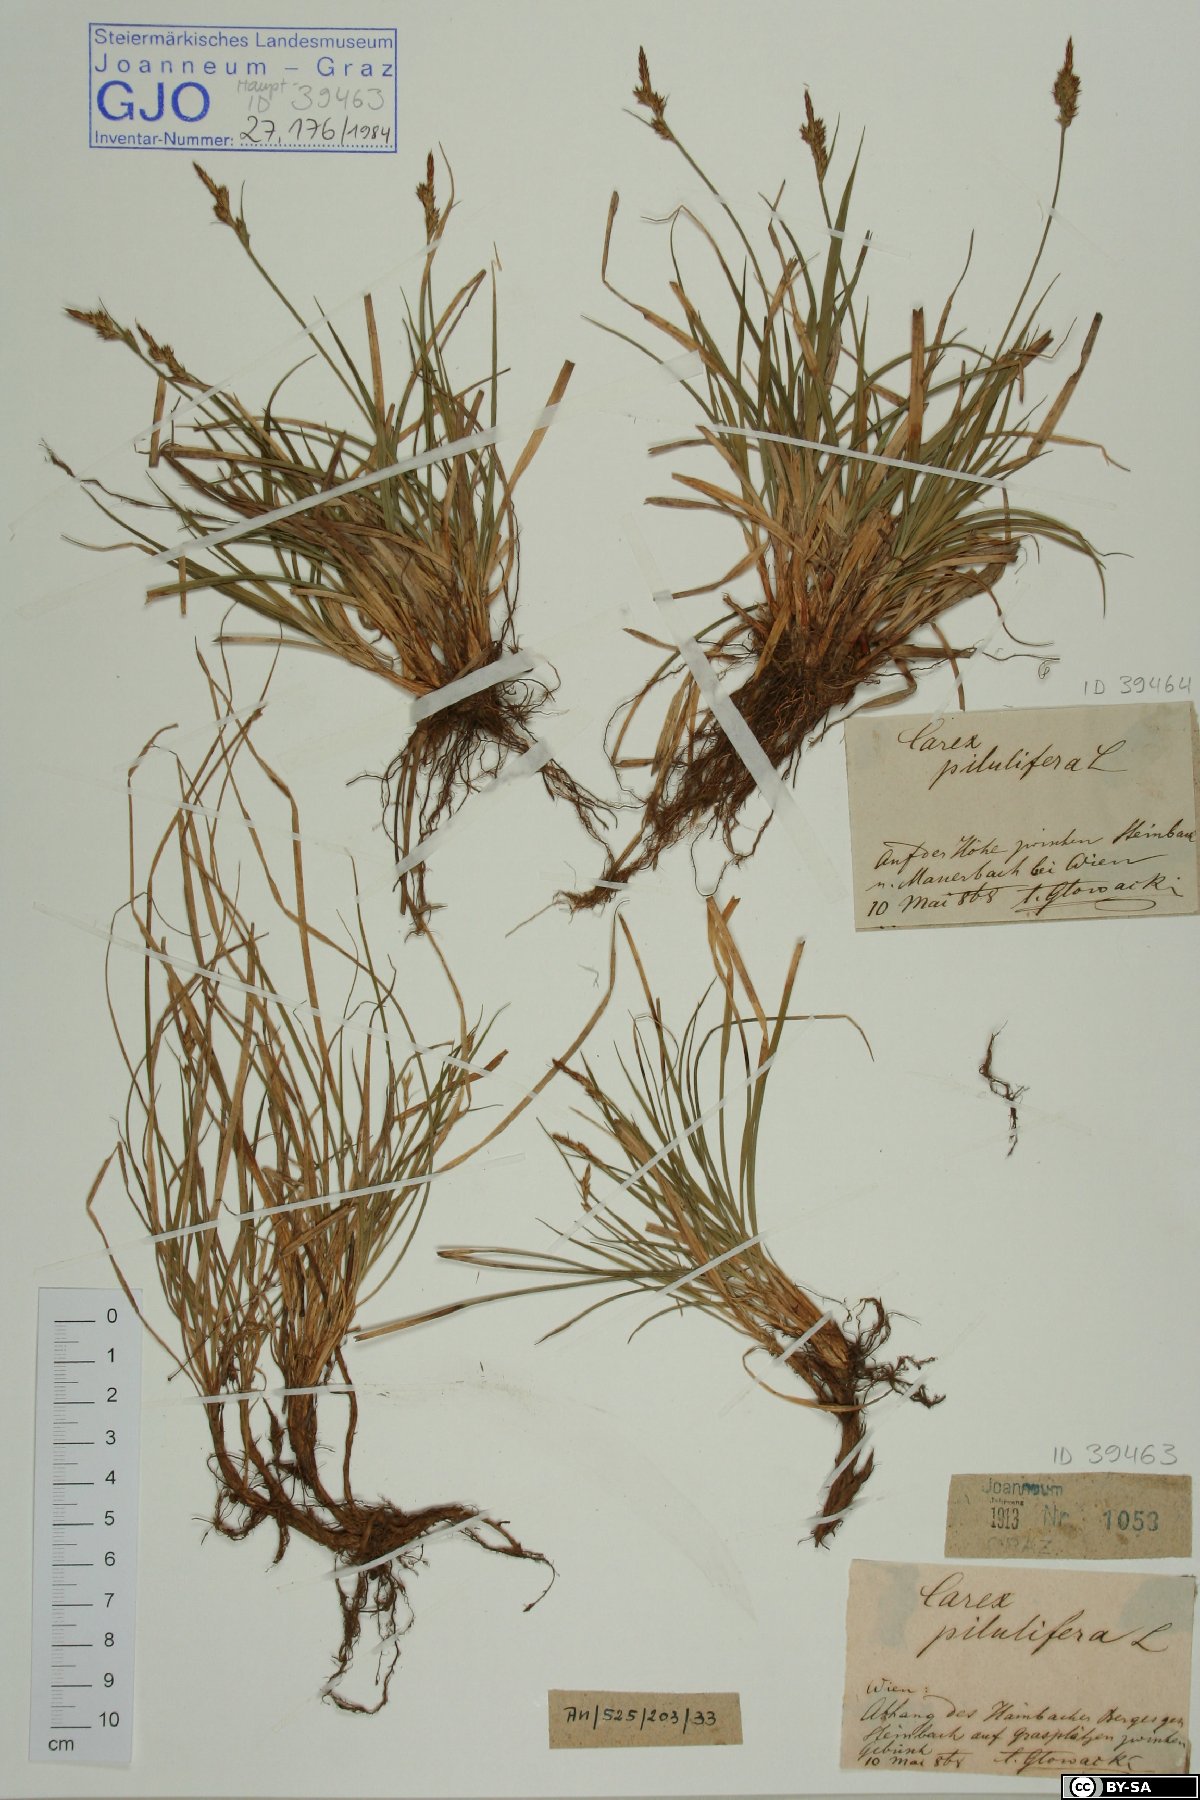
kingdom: Plantae
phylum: Tracheophyta
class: Liliopsida
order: Poales
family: Cyperaceae
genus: Carex
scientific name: Carex pilulifera
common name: Pill sedge
